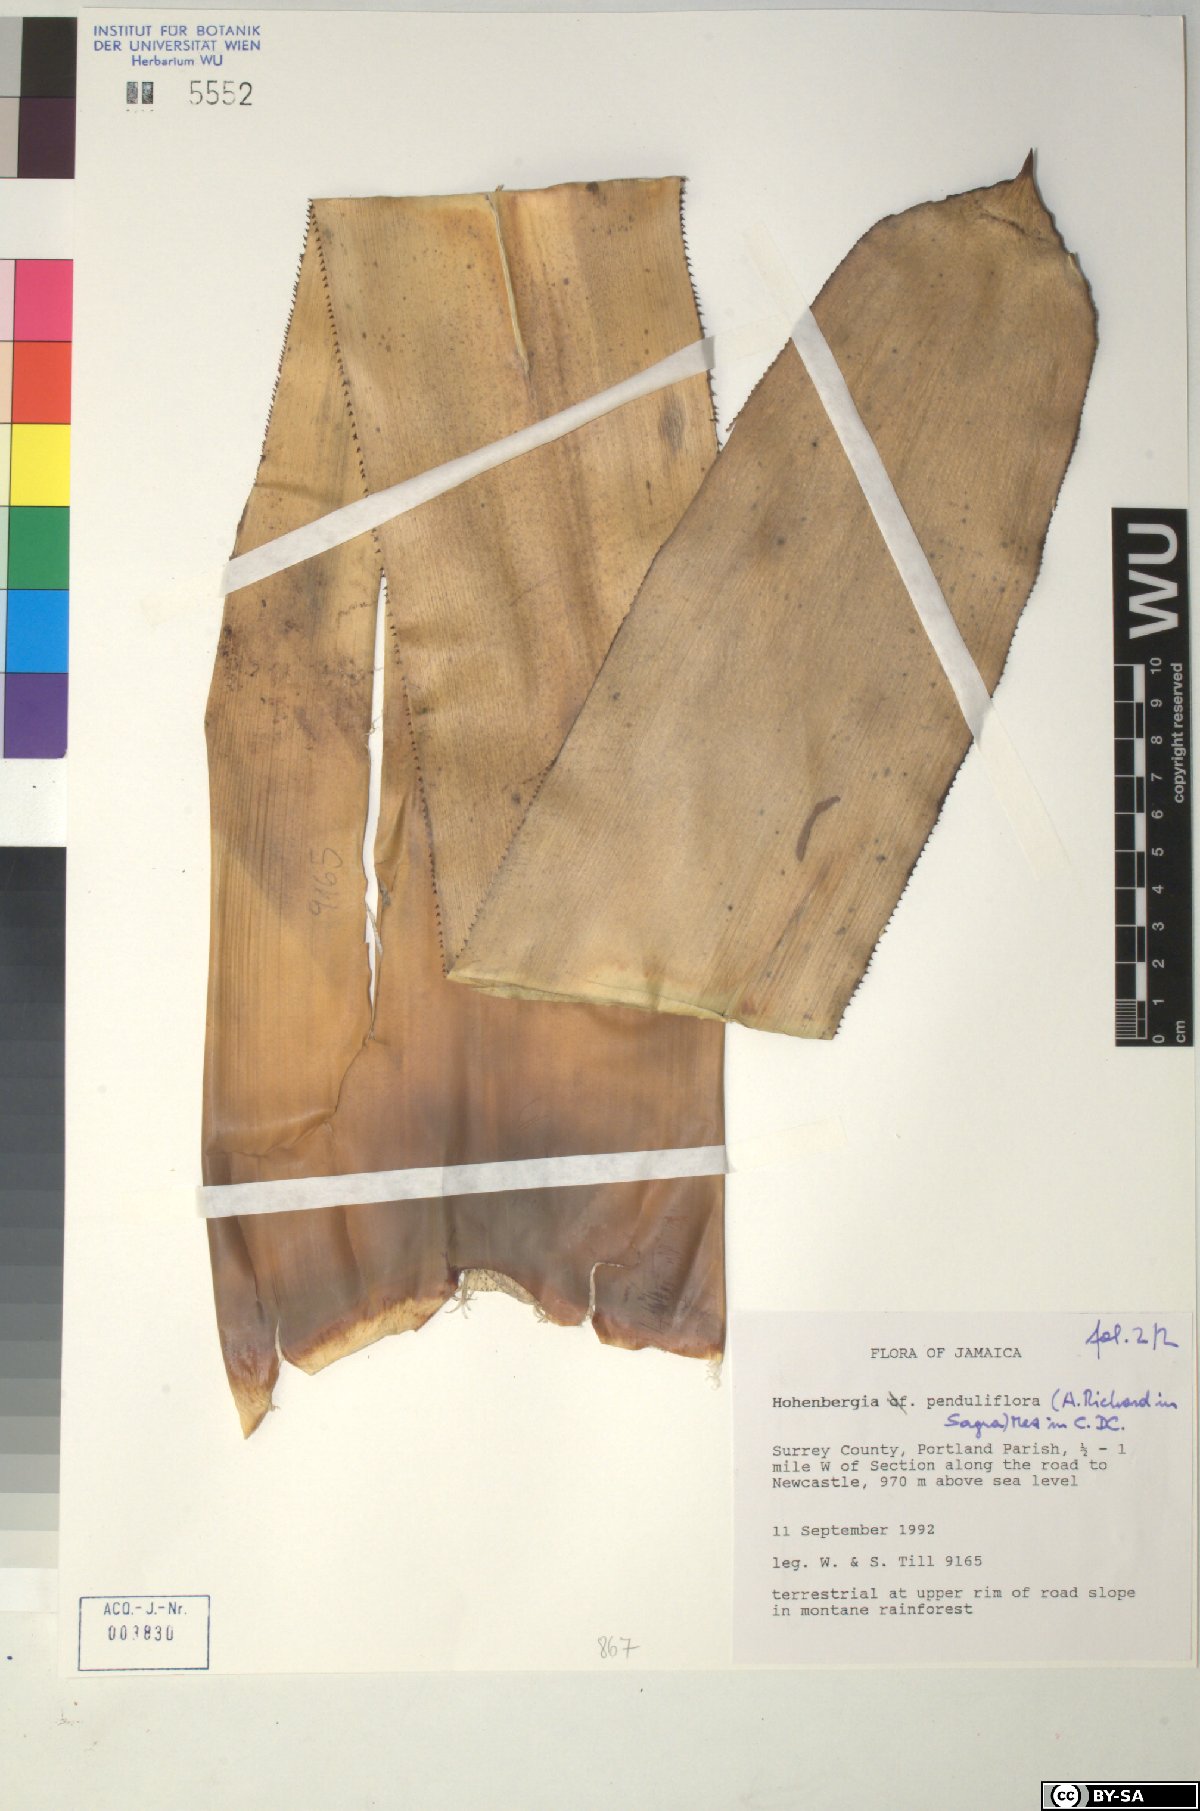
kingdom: Plantae
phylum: Tracheophyta
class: Liliopsida
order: Poales
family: Bromeliaceae
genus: Wittmackia
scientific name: Wittmackia penduliflora
